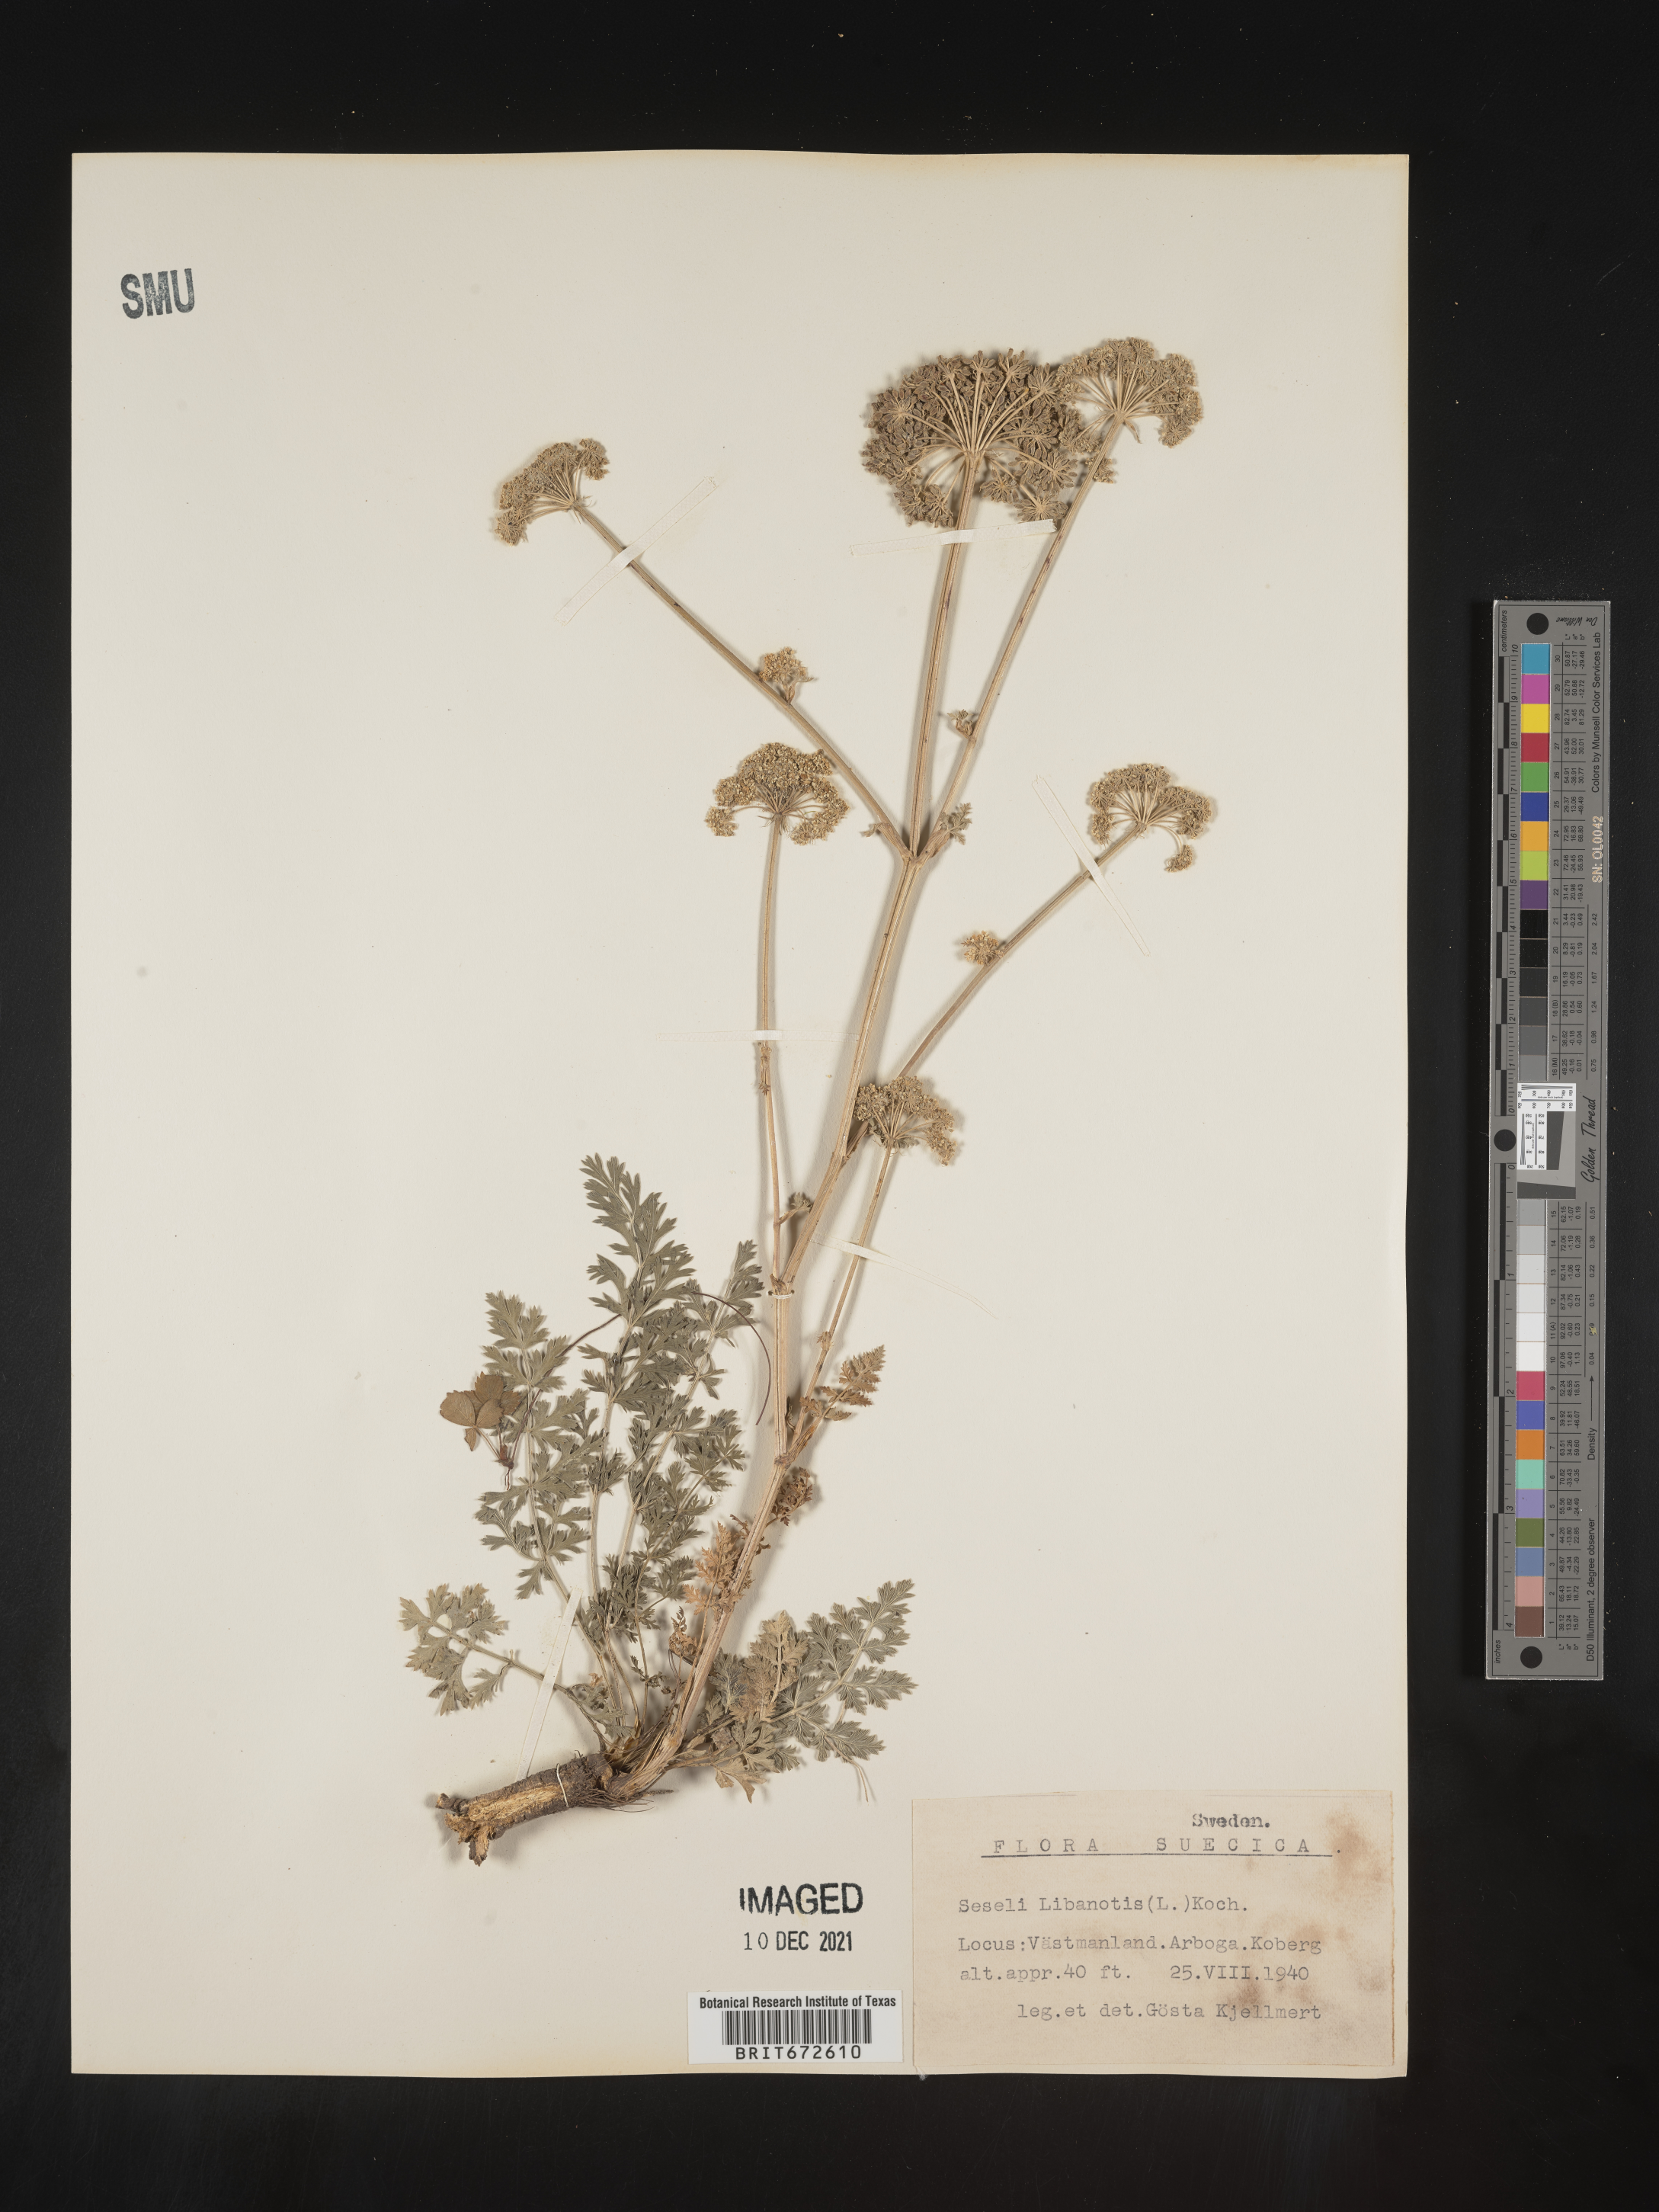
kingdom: Plantae
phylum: Tracheophyta
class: Magnoliopsida
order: Apiales
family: Apiaceae
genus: Seseli
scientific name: Seseli
